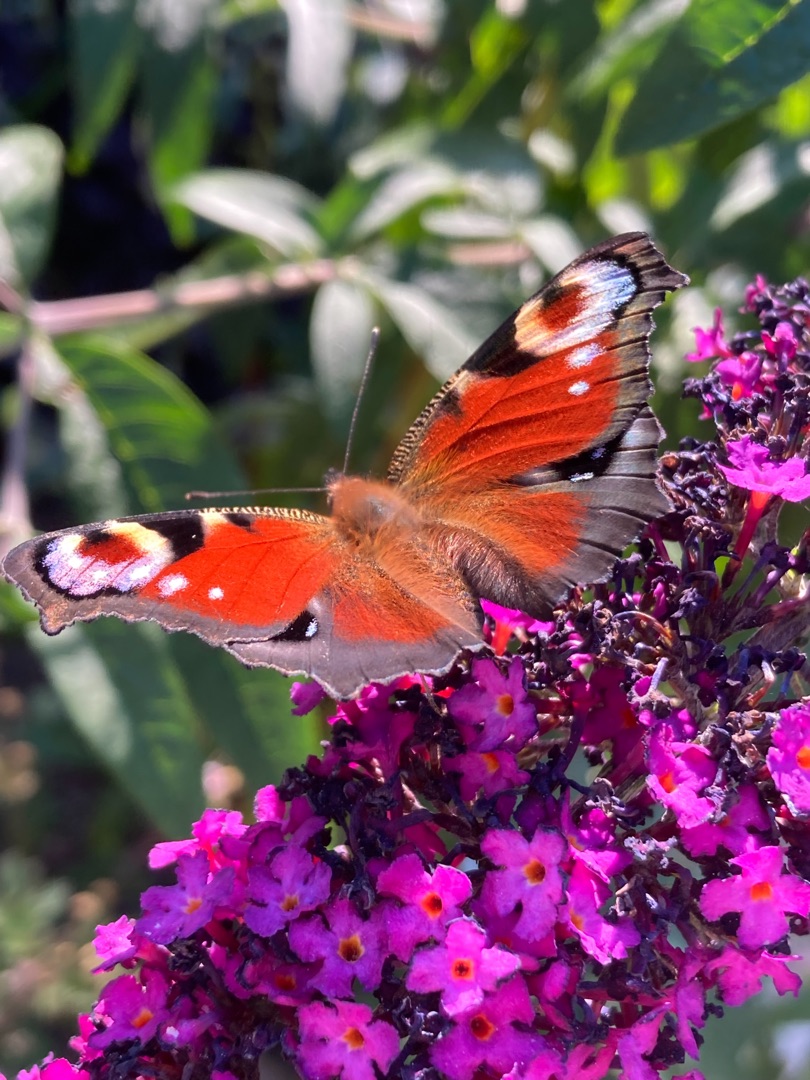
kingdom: Animalia
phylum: Arthropoda
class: Insecta
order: Lepidoptera
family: Nymphalidae
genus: Aglais
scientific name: Aglais io
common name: Dagpåfugleøje
